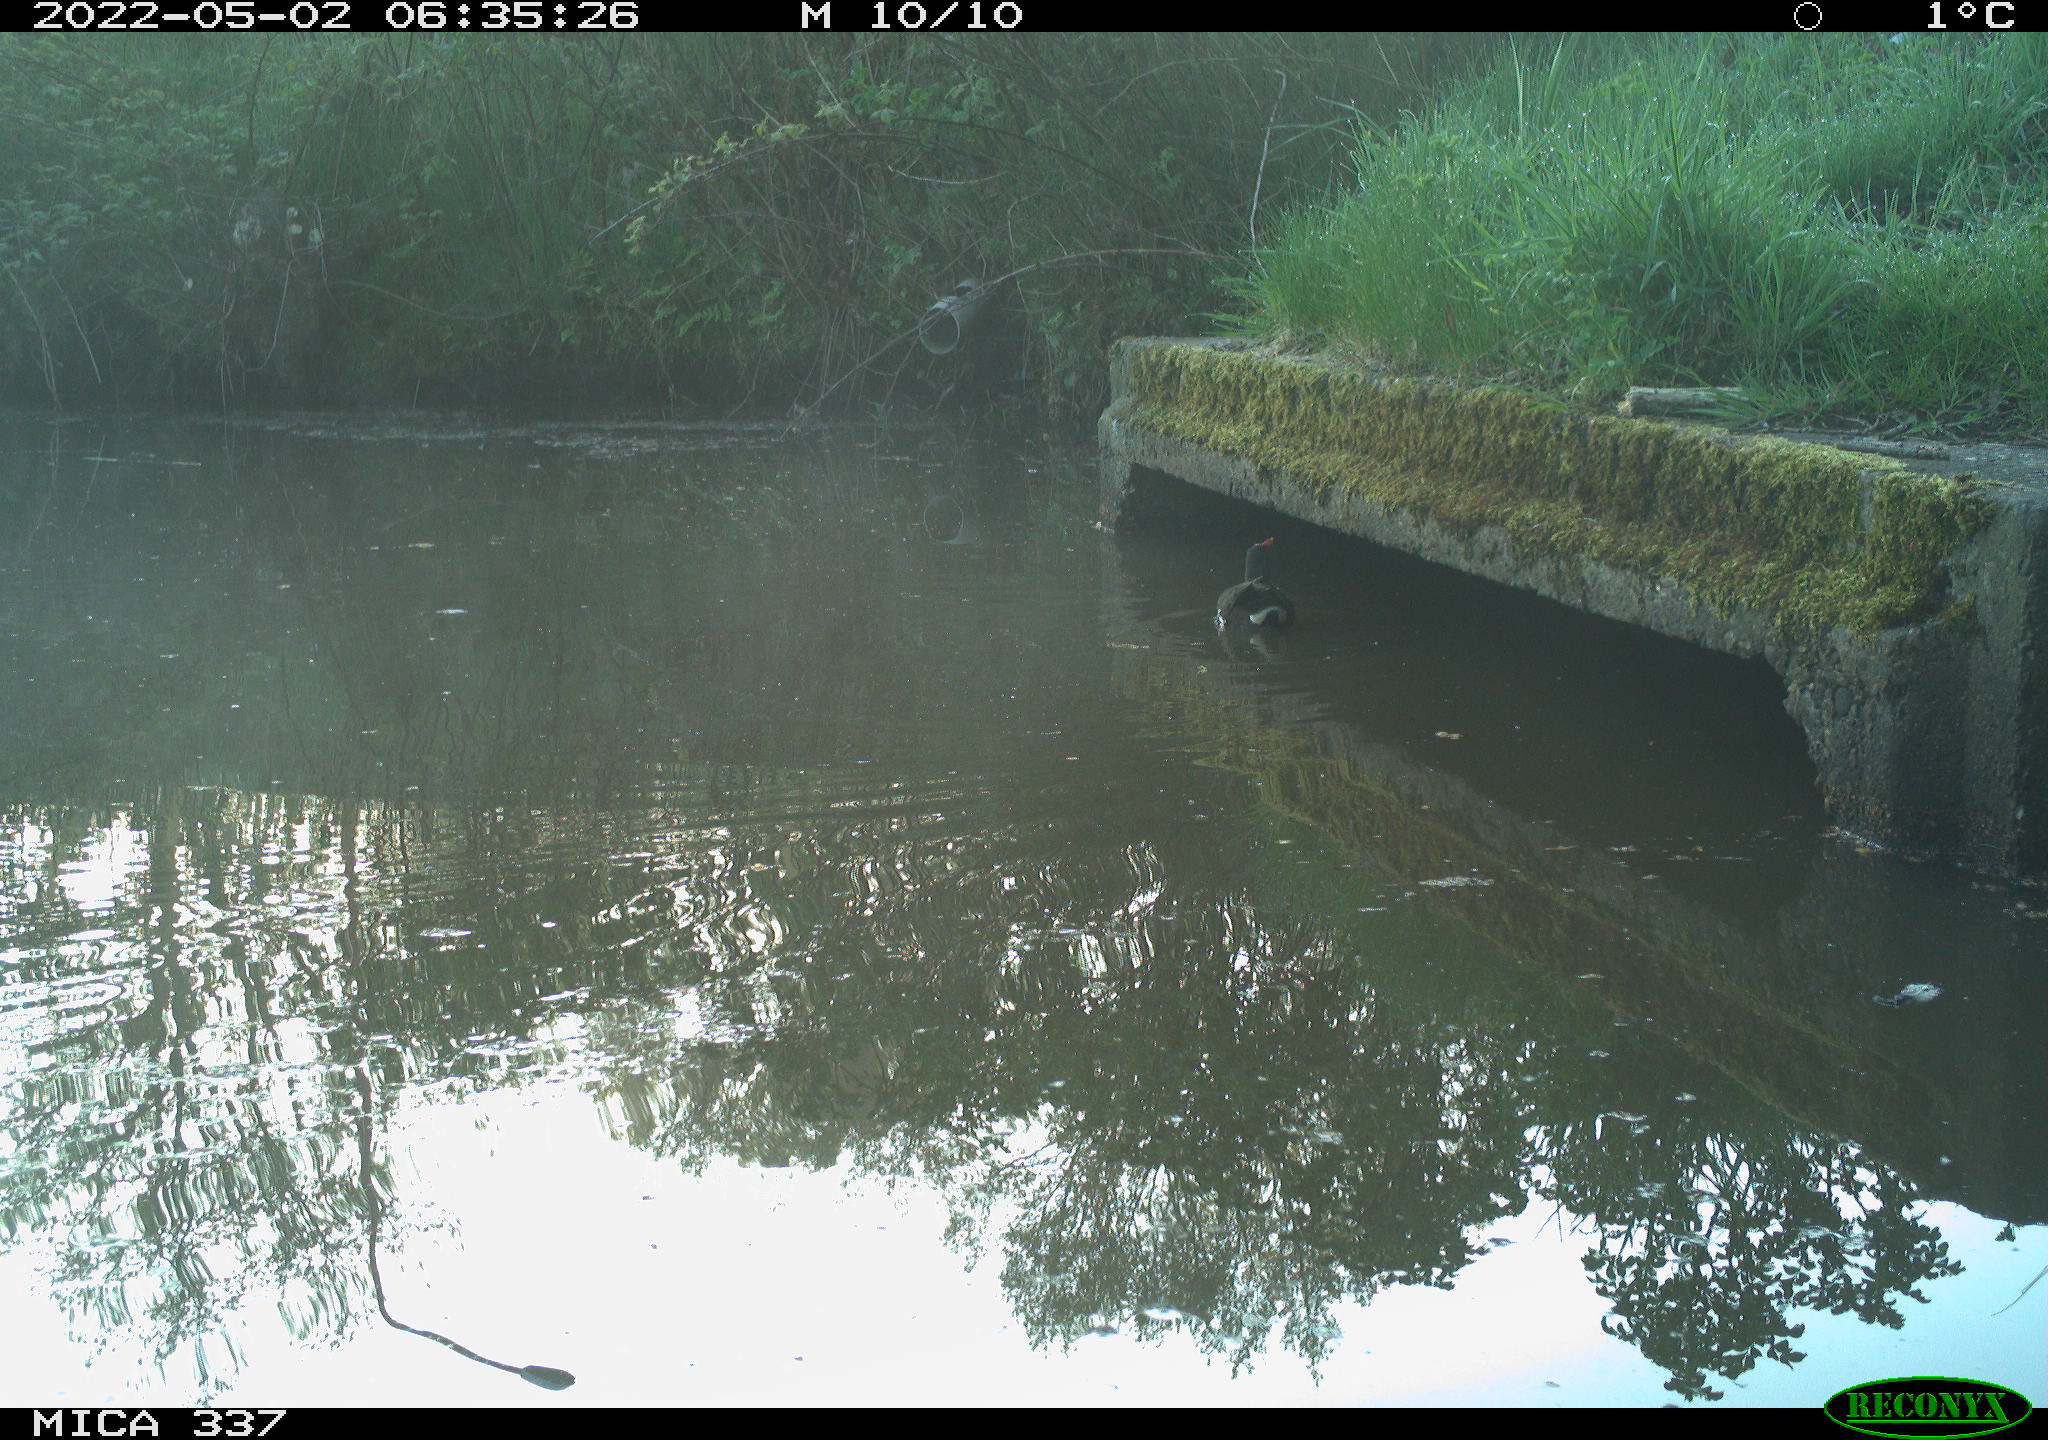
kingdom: Animalia
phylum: Chordata
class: Aves
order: Gruiformes
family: Rallidae
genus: Gallinula
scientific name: Gallinula chloropus
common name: Common moorhen
